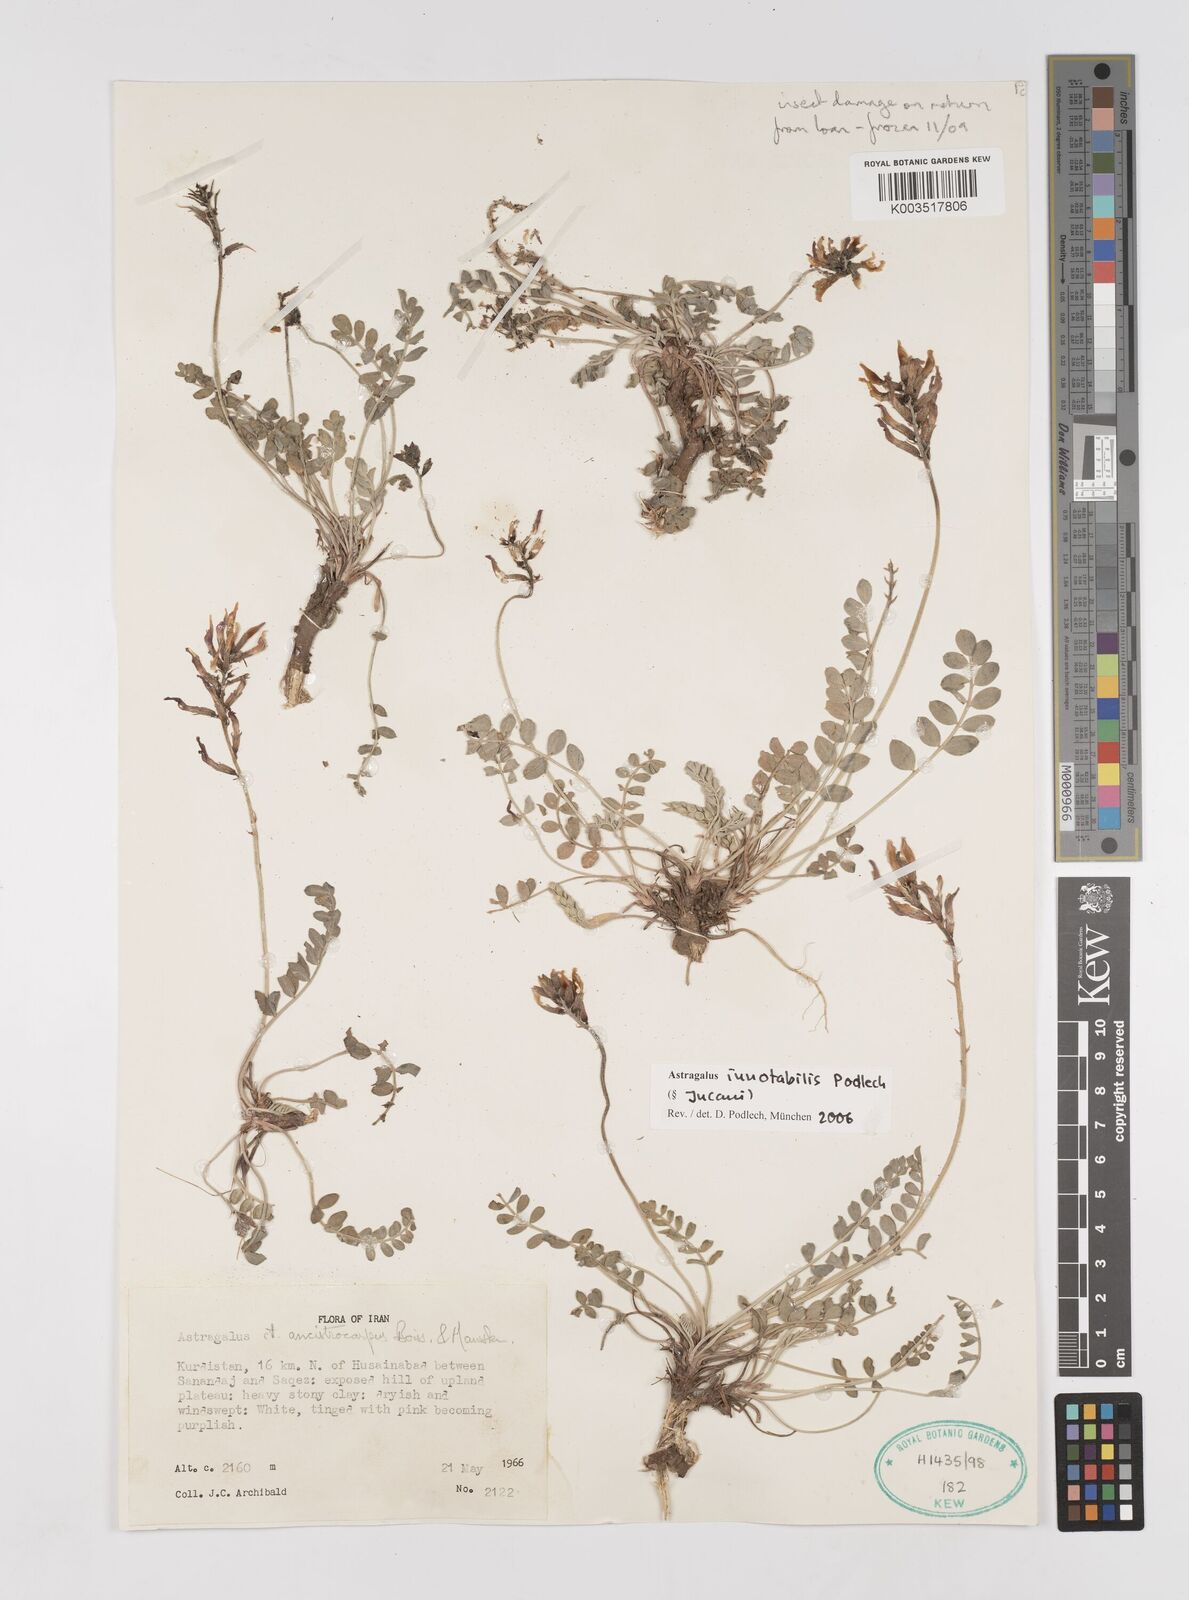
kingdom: Plantae
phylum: Tracheophyta
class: Magnoliopsida
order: Fabales
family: Fabaceae
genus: Astragalus
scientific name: Astragalus innotabilis
